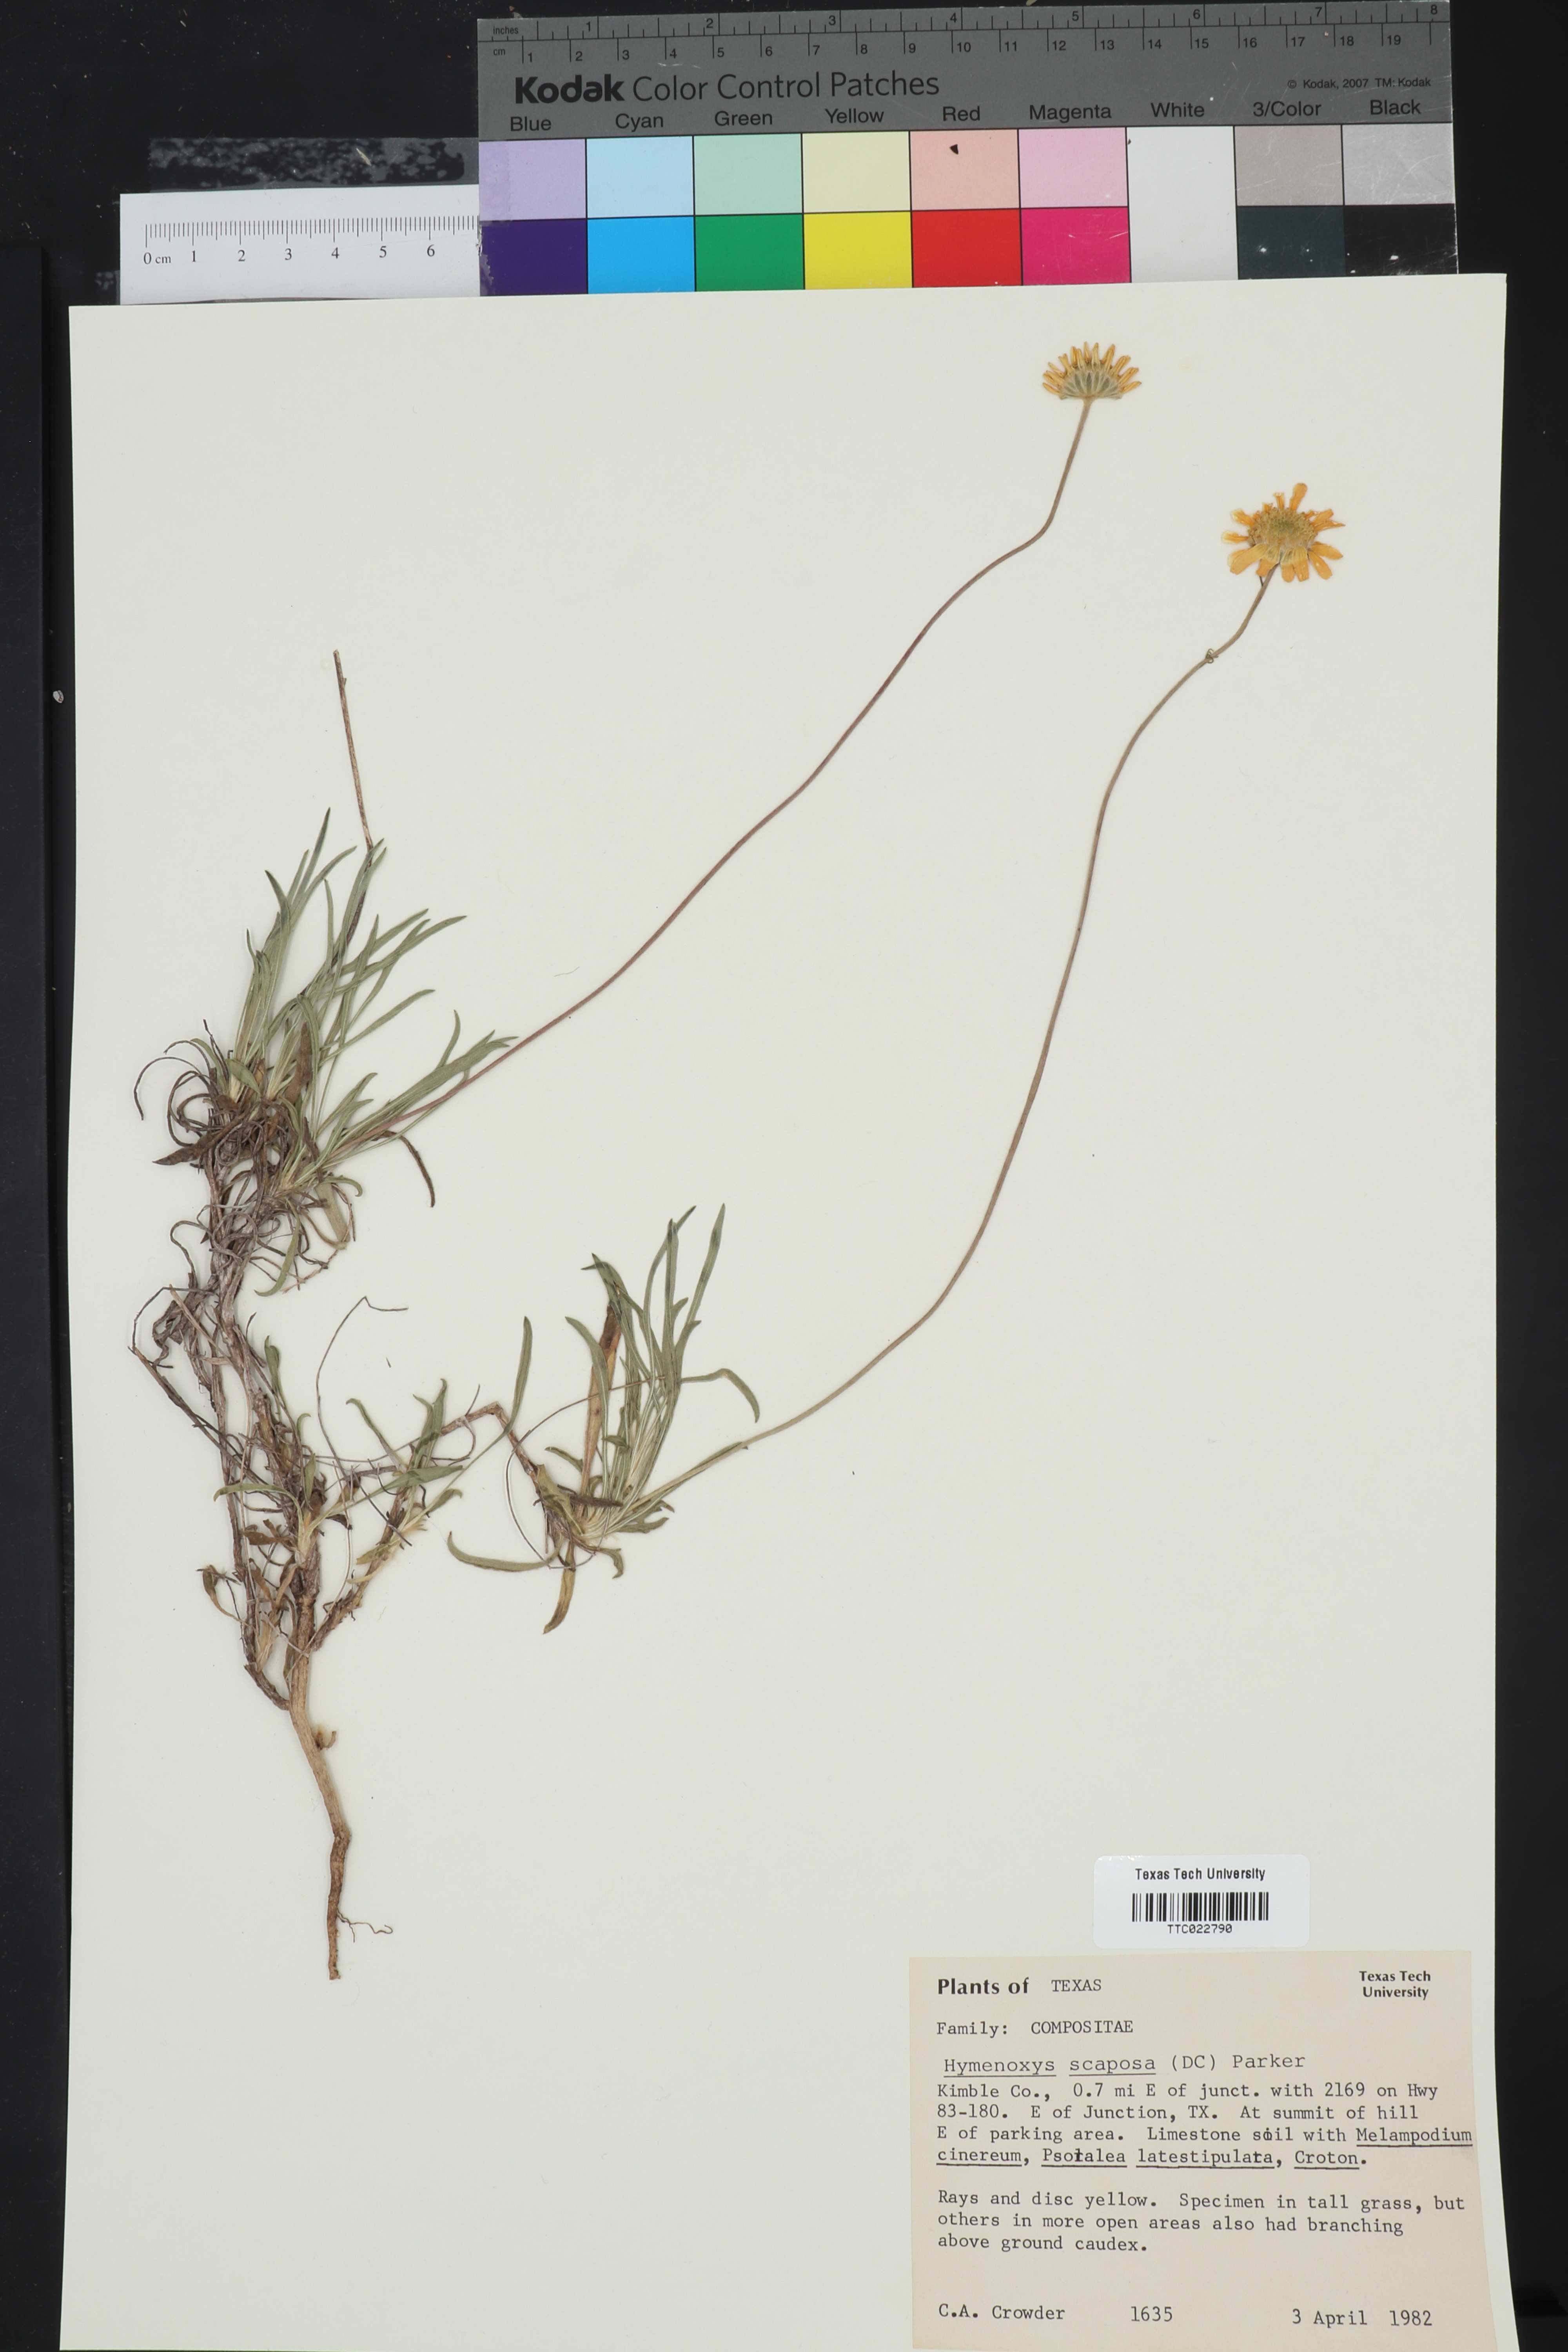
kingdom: Plantae
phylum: Tracheophyta
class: Magnoliopsida
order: Asterales
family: Asteraceae
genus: Tetraneuris
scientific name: Tetraneuris scaposa
